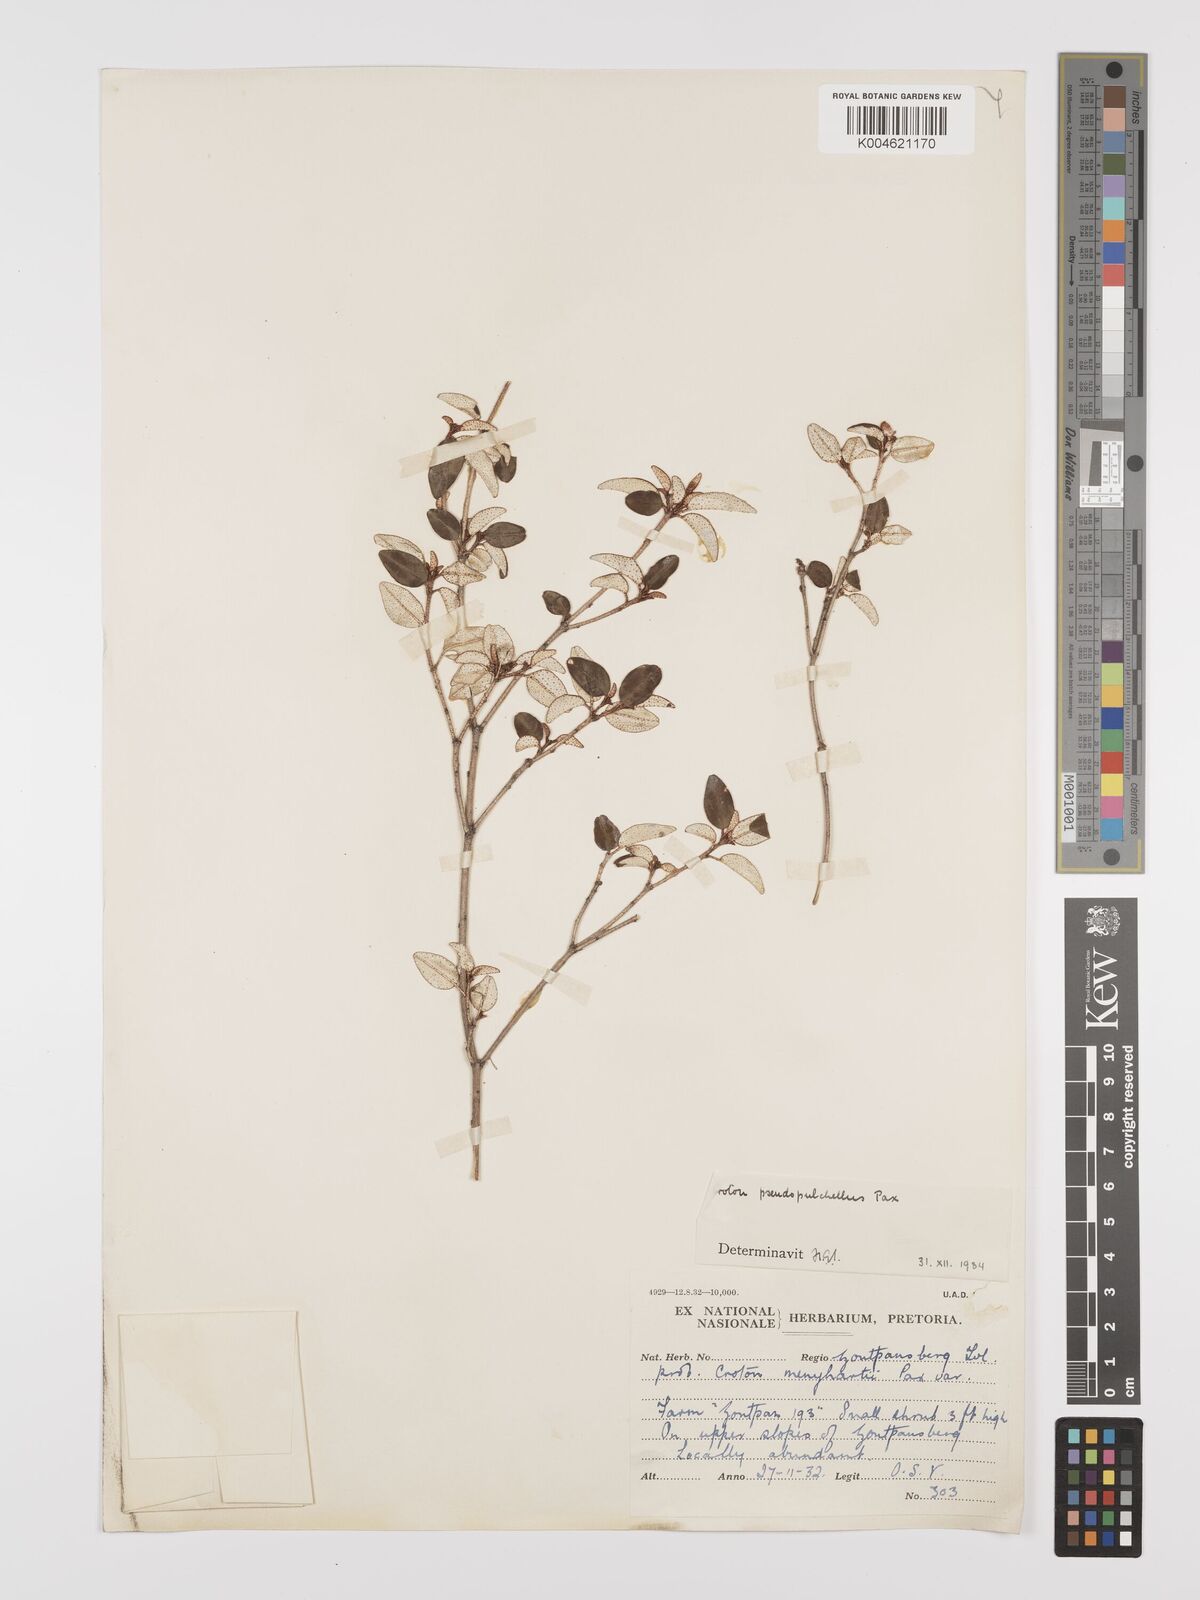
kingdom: Plantae
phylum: Tracheophyta
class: Magnoliopsida
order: Malpighiales
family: Euphorbiaceae
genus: Croton
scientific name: Croton pseudopulchellus
